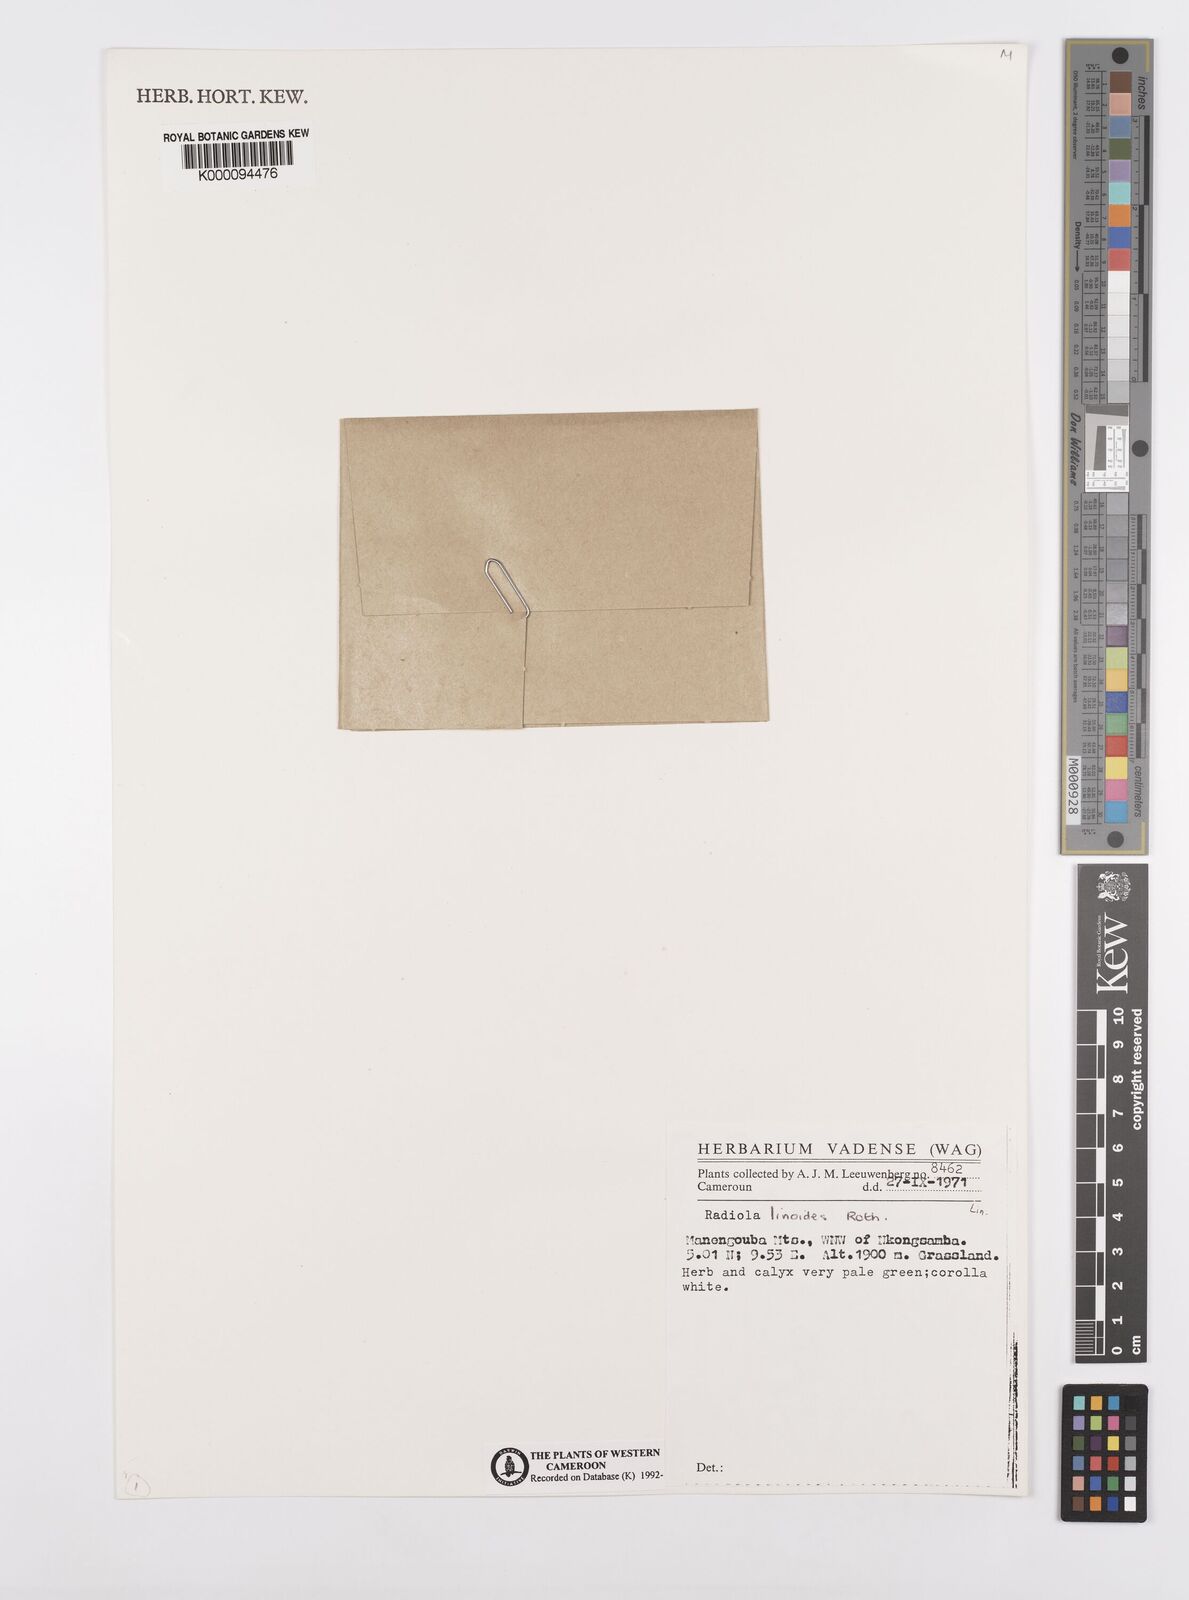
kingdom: Plantae
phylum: Tracheophyta
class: Magnoliopsida
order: Malpighiales
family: Linaceae
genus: Radiola
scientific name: Radiola linoides
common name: Allseed
